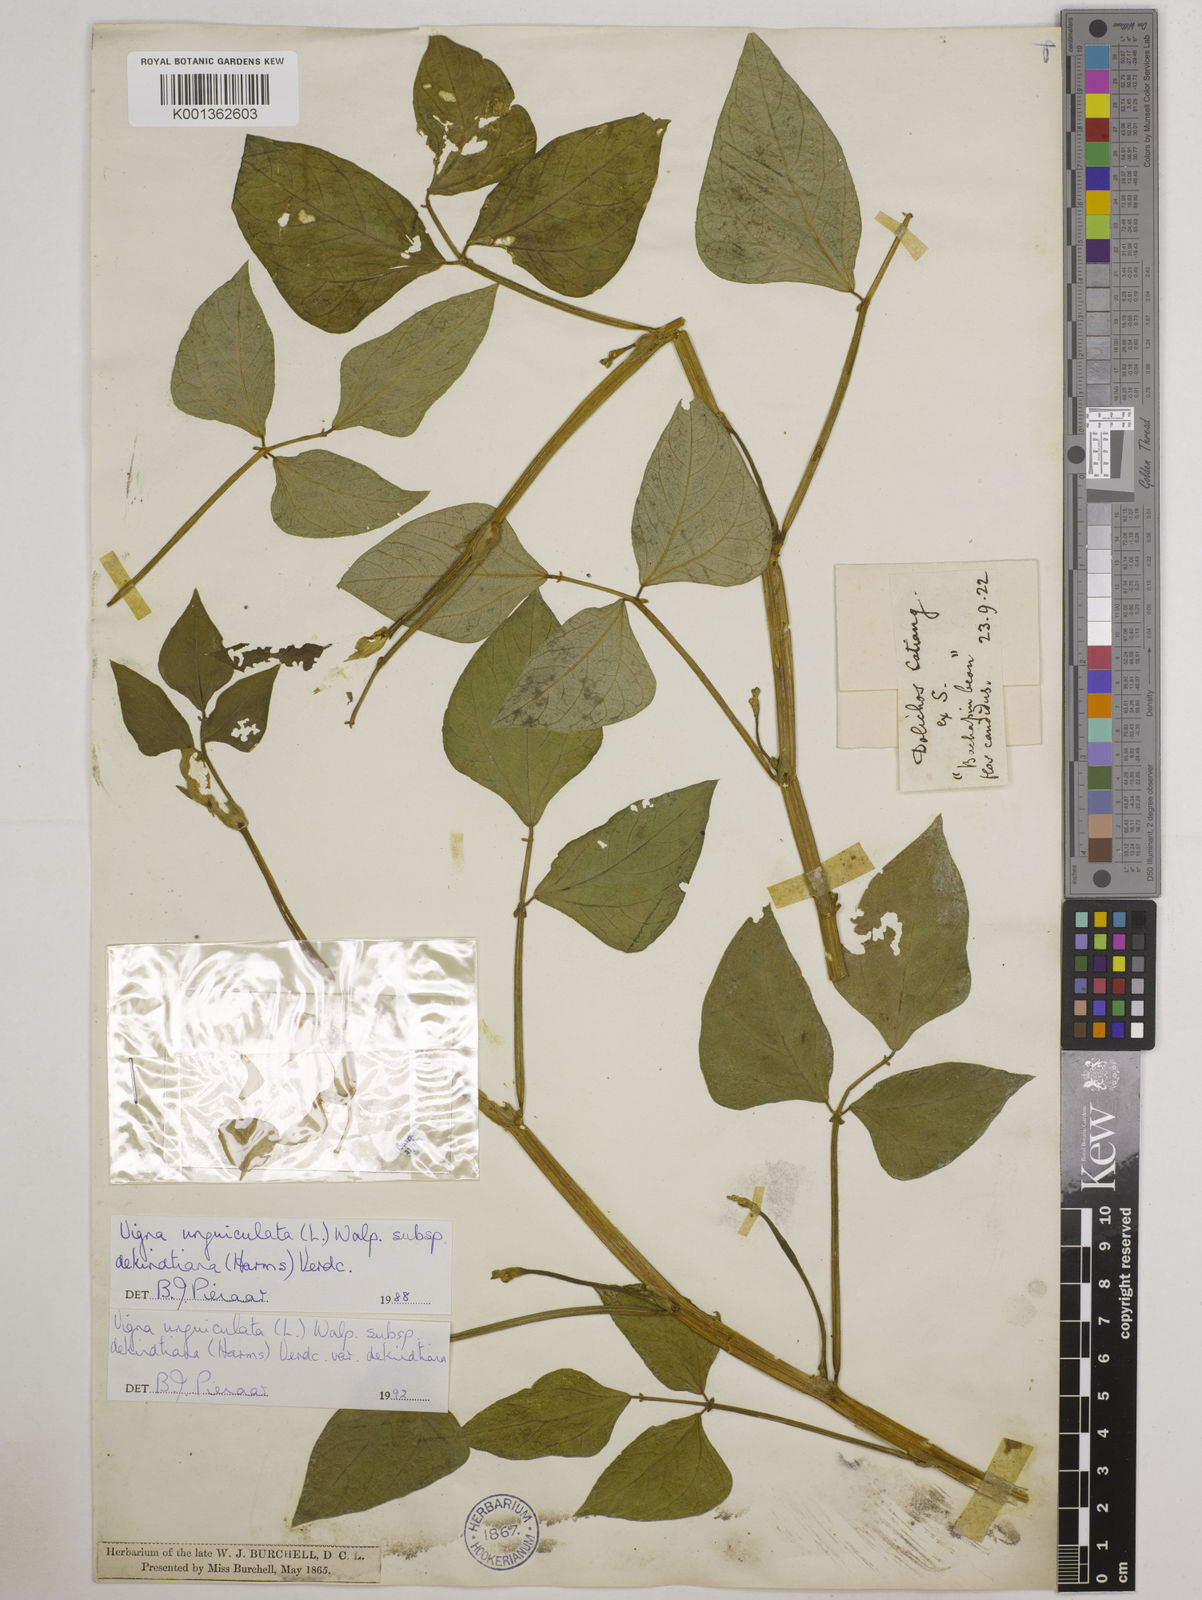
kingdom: Plantae
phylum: Tracheophyta
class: Magnoliopsida
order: Fabales
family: Fabaceae
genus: Vigna
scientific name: Vigna
